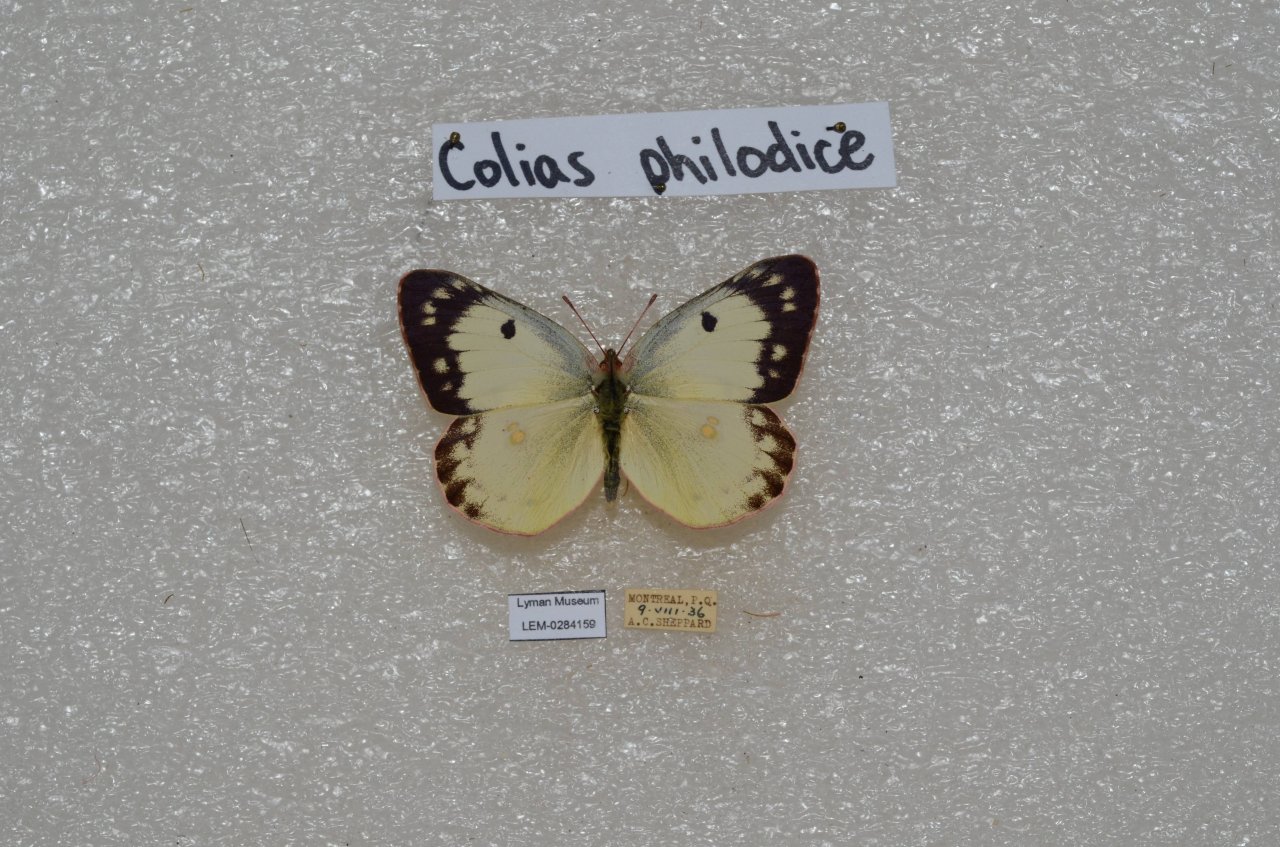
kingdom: Animalia
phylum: Arthropoda
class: Insecta
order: Lepidoptera
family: Pieridae
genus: Colias
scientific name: Colias philodice
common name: Clouded Sulphur
